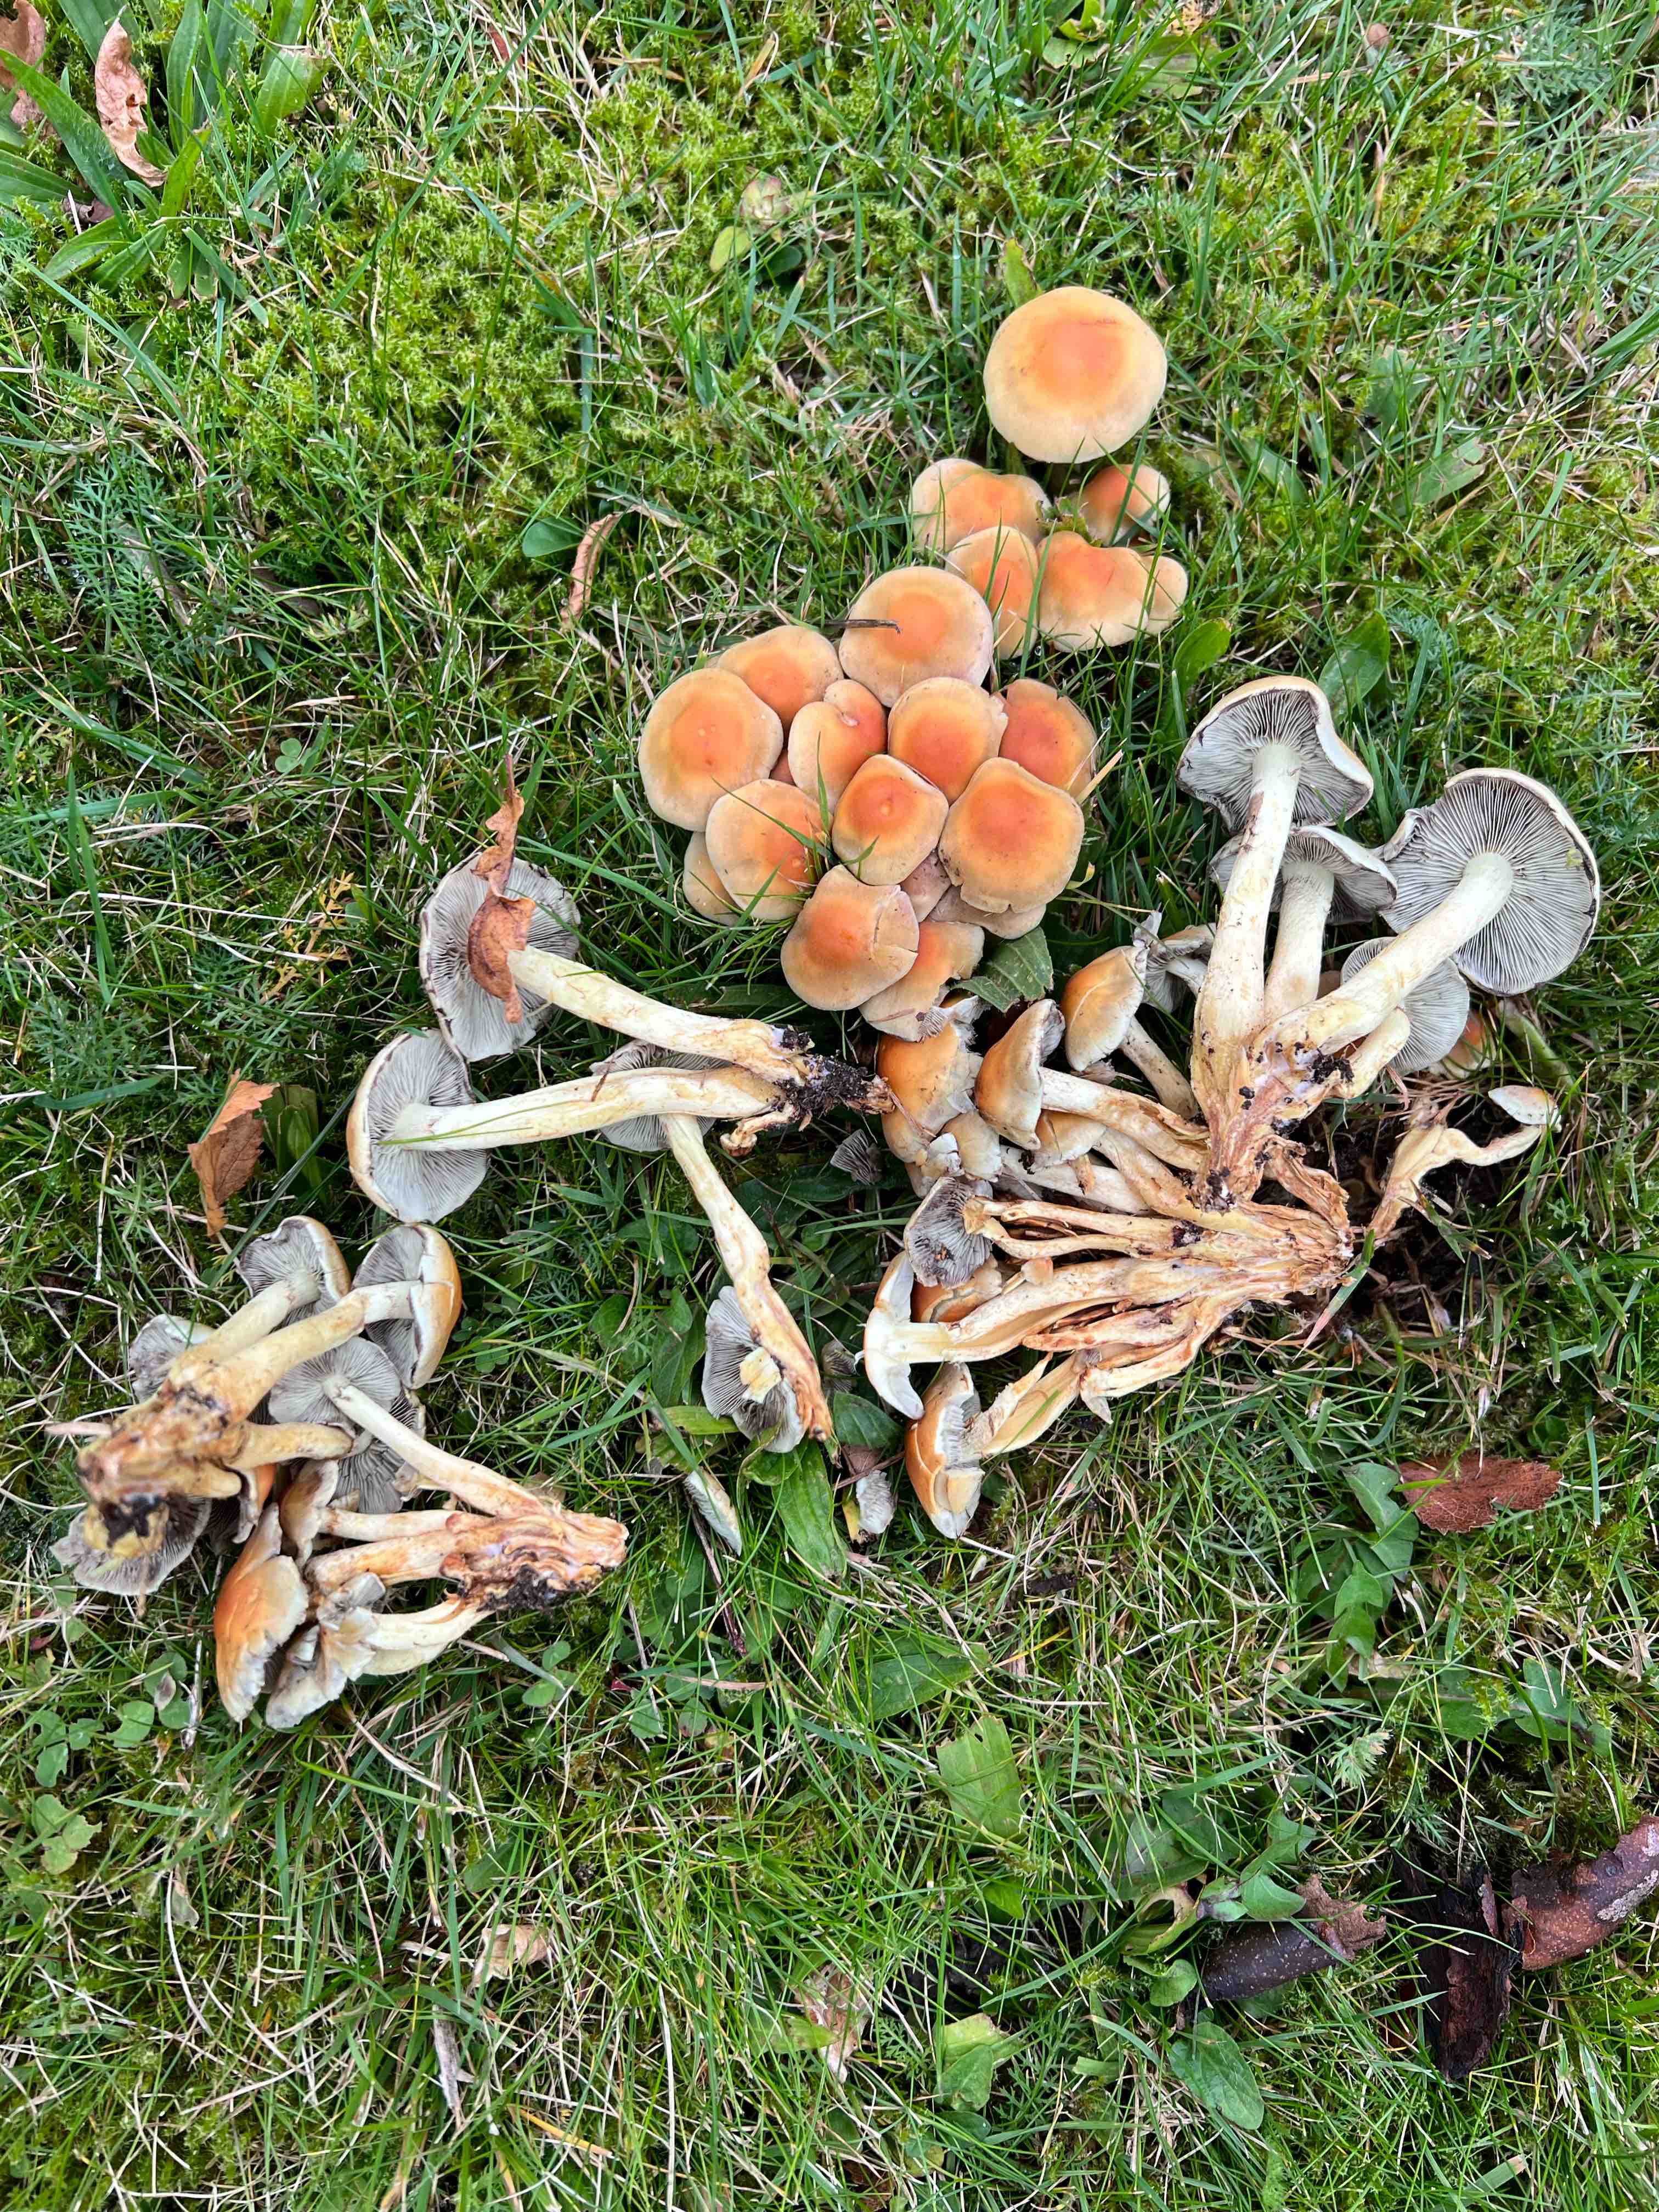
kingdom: Fungi
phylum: Basidiomycota
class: Agaricomycetes
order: Agaricales
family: Strophariaceae
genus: Hypholoma
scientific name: Hypholoma fasciculare
